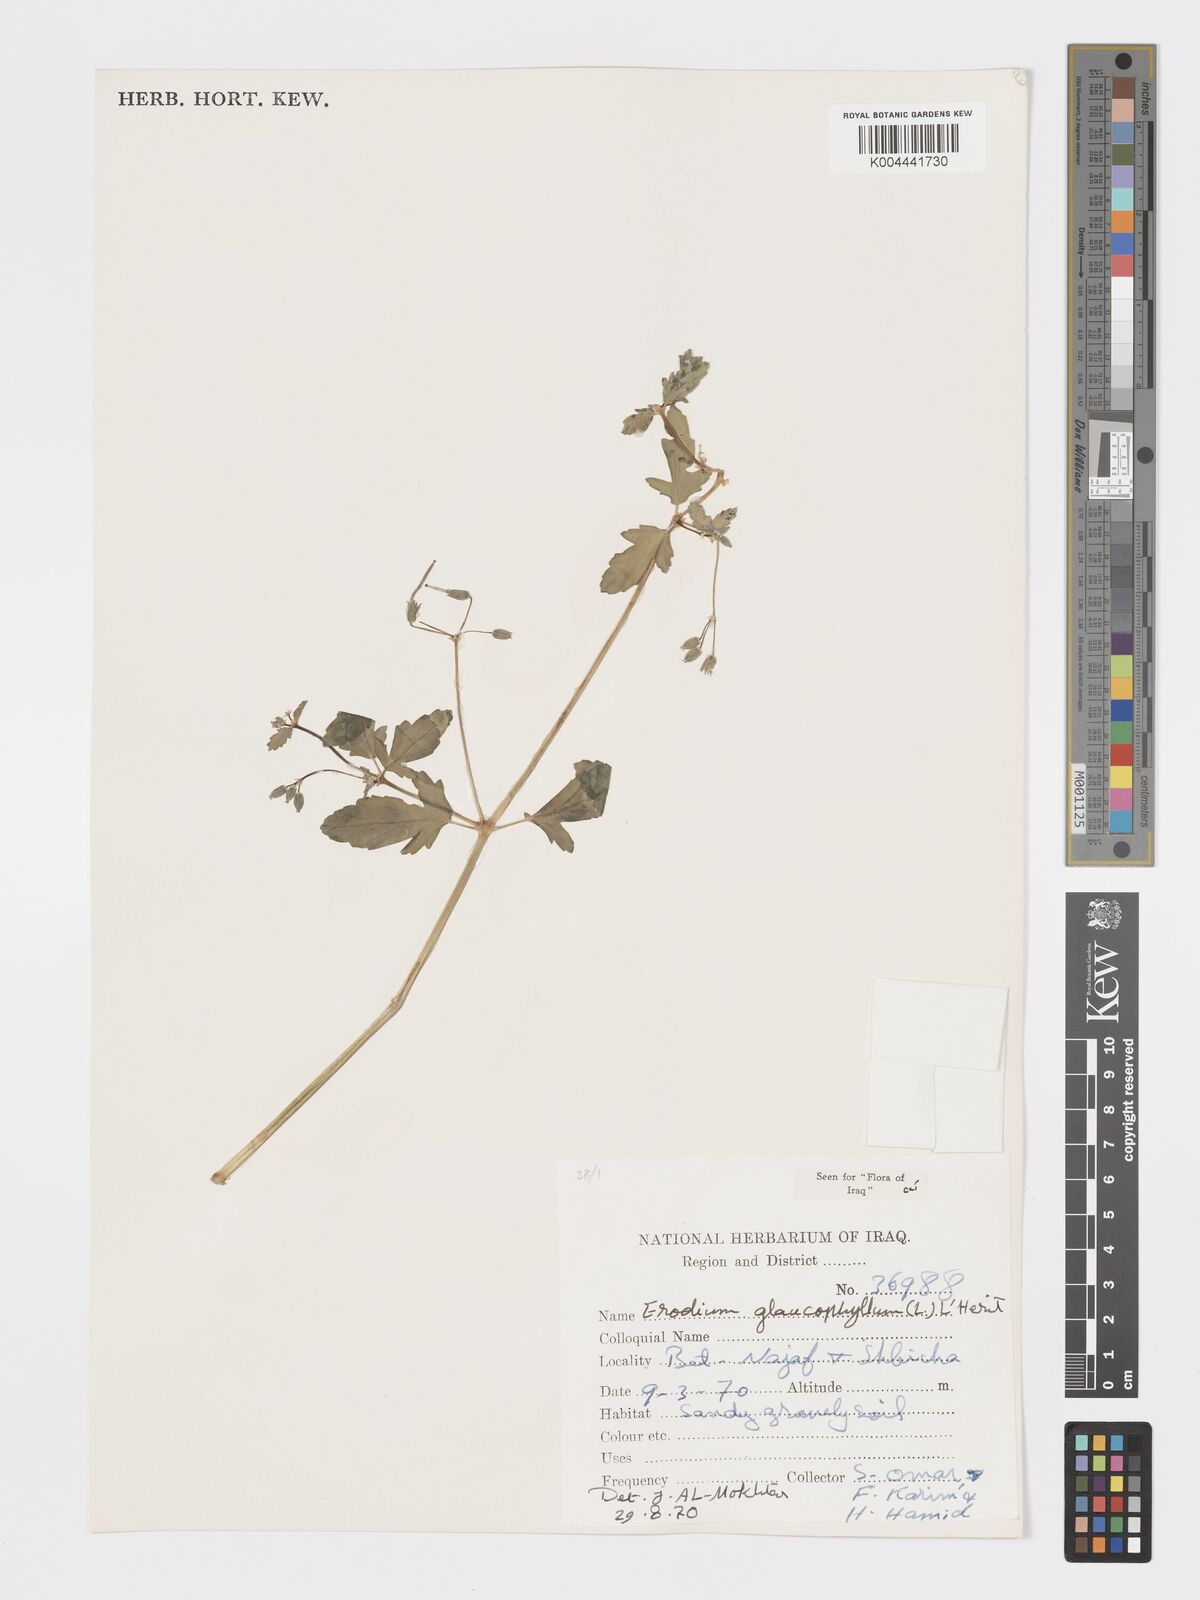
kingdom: Plantae
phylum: Tracheophyta
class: Magnoliopsida
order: Geraniales
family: Geraniaceae
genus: Erodium
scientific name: Erodium glaucophyllum
